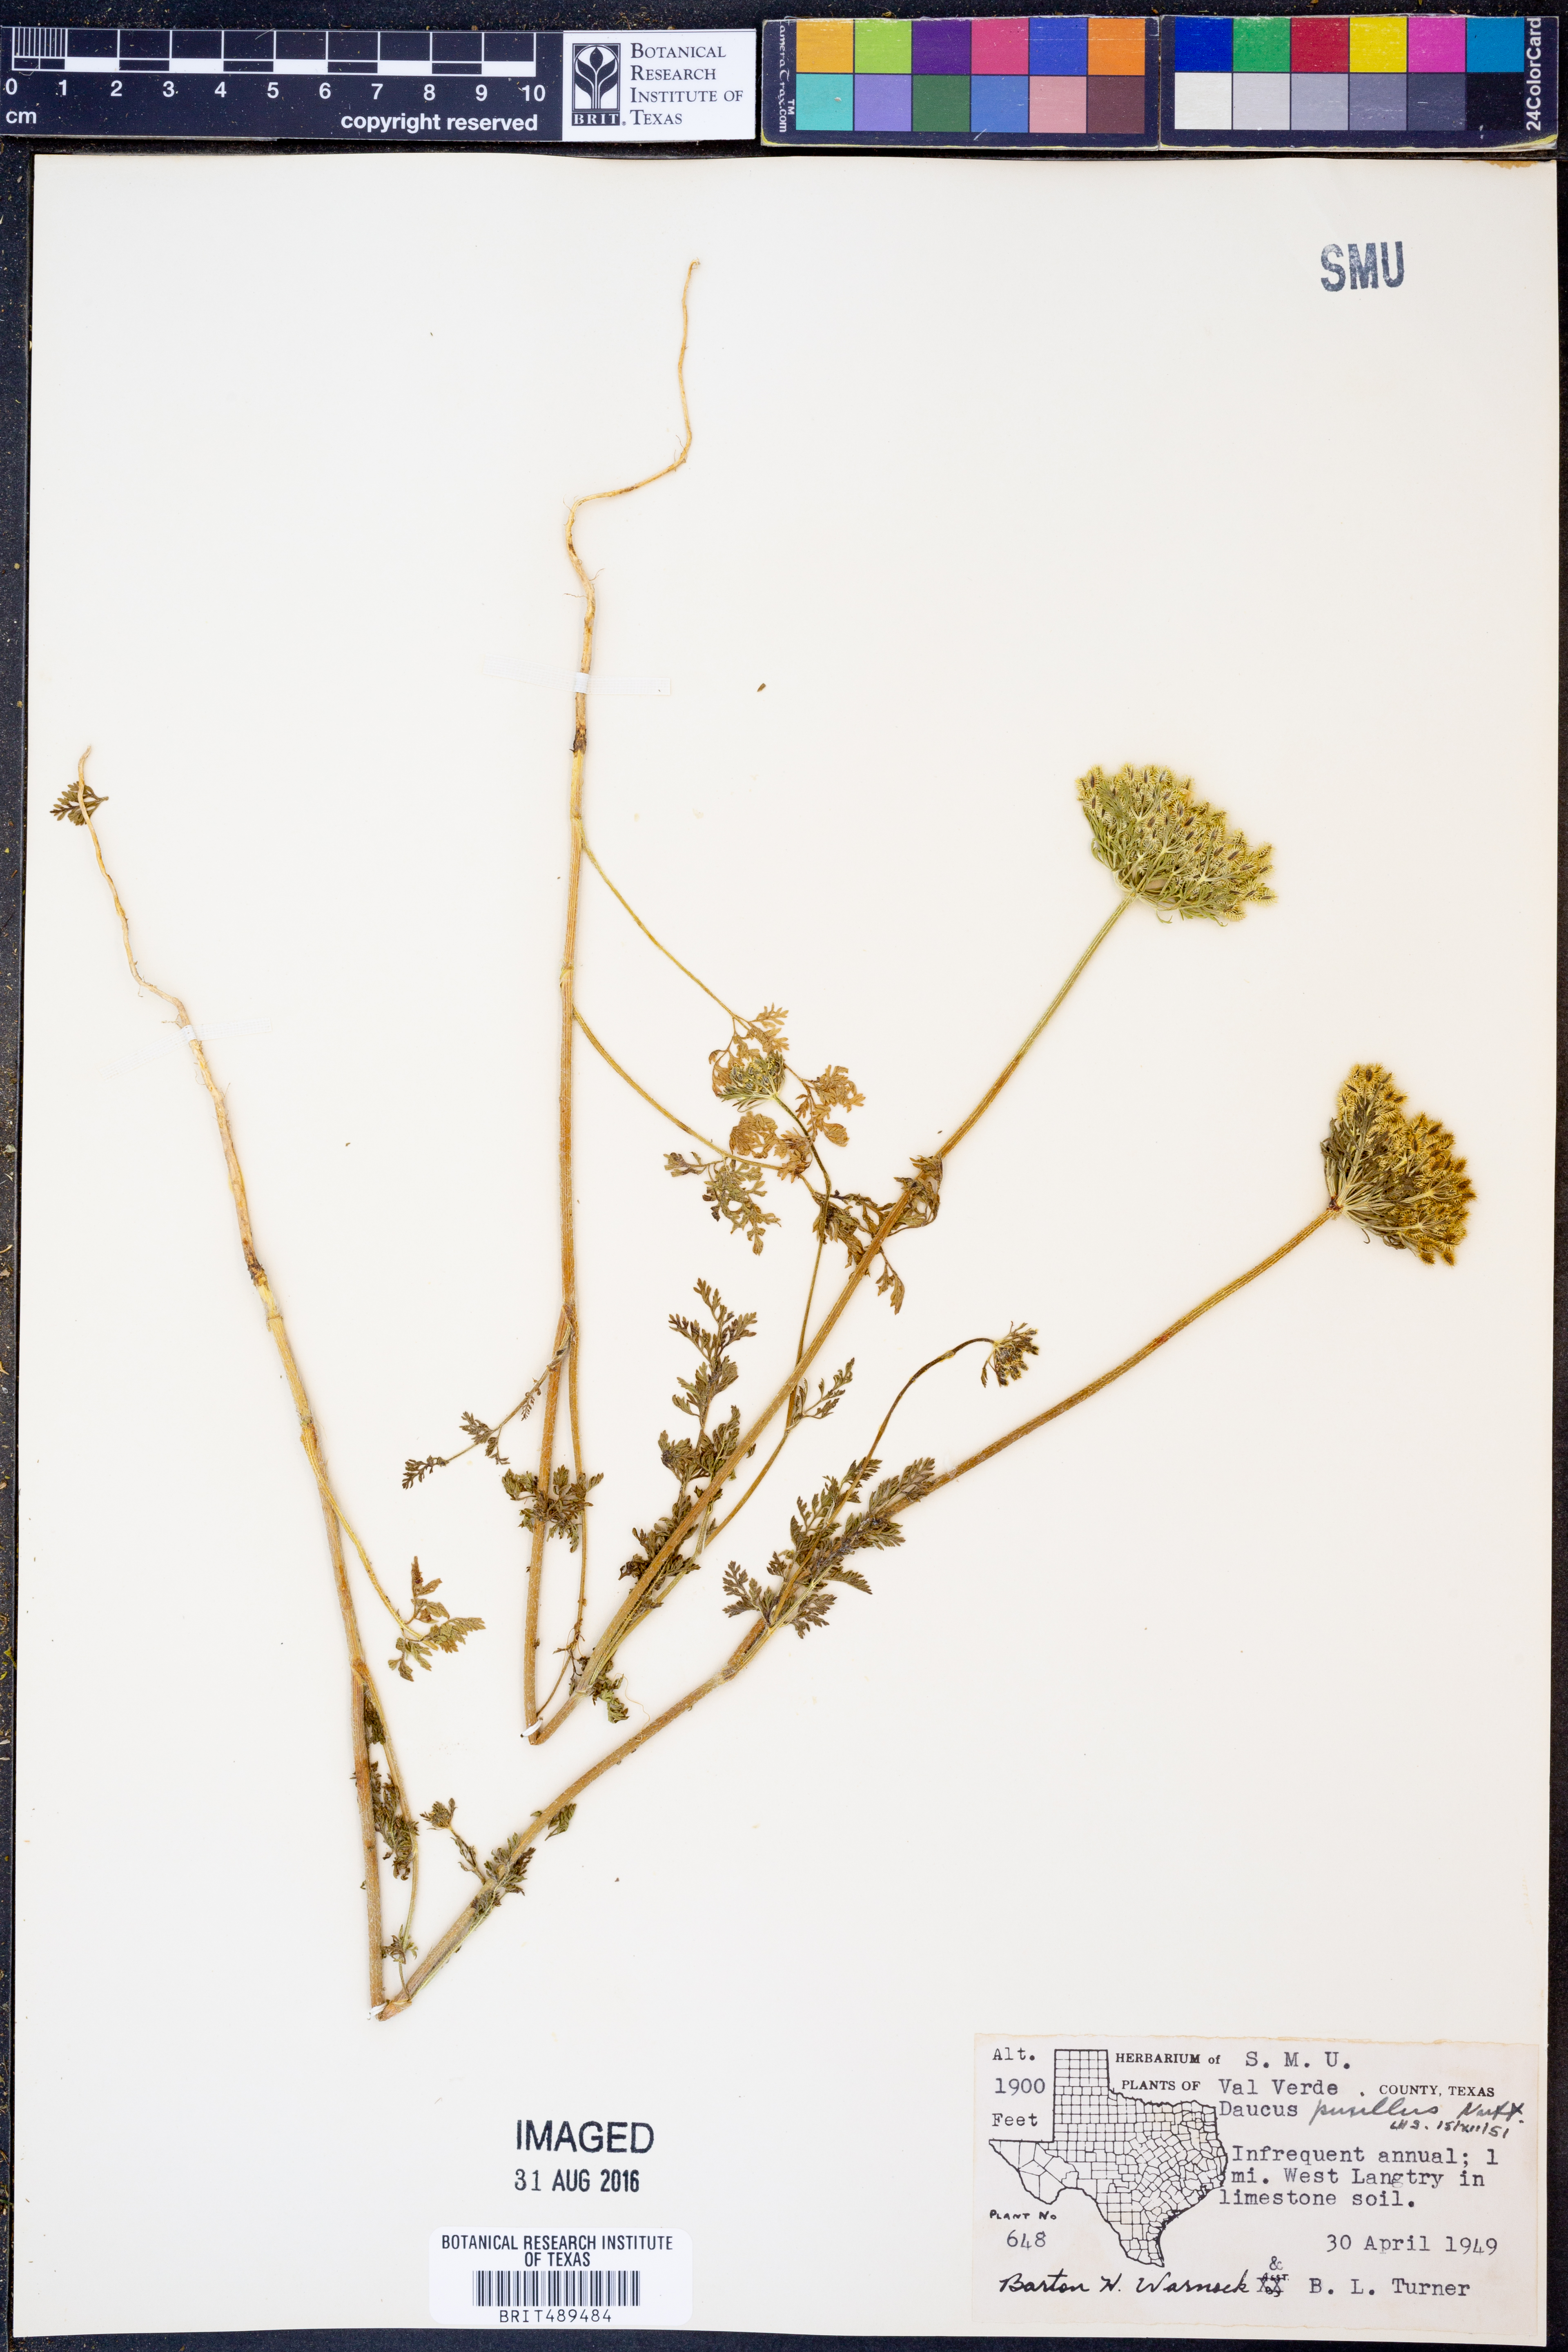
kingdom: Plantae
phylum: Tracheophyta
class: Magnoliopsida
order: Apiales
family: Apiaceae
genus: Daucus
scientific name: Daucus pusillus
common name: Southwest wild carrot
